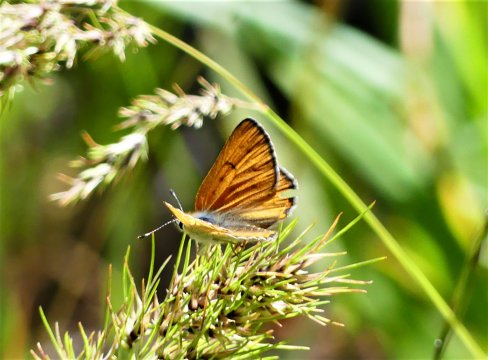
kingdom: Animalia
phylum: Arthropoda
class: Insecta
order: Lepidoptera
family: Sesiidae
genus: Sesia
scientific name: Sesia Lycaena rubidus
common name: Ruddy Copper
